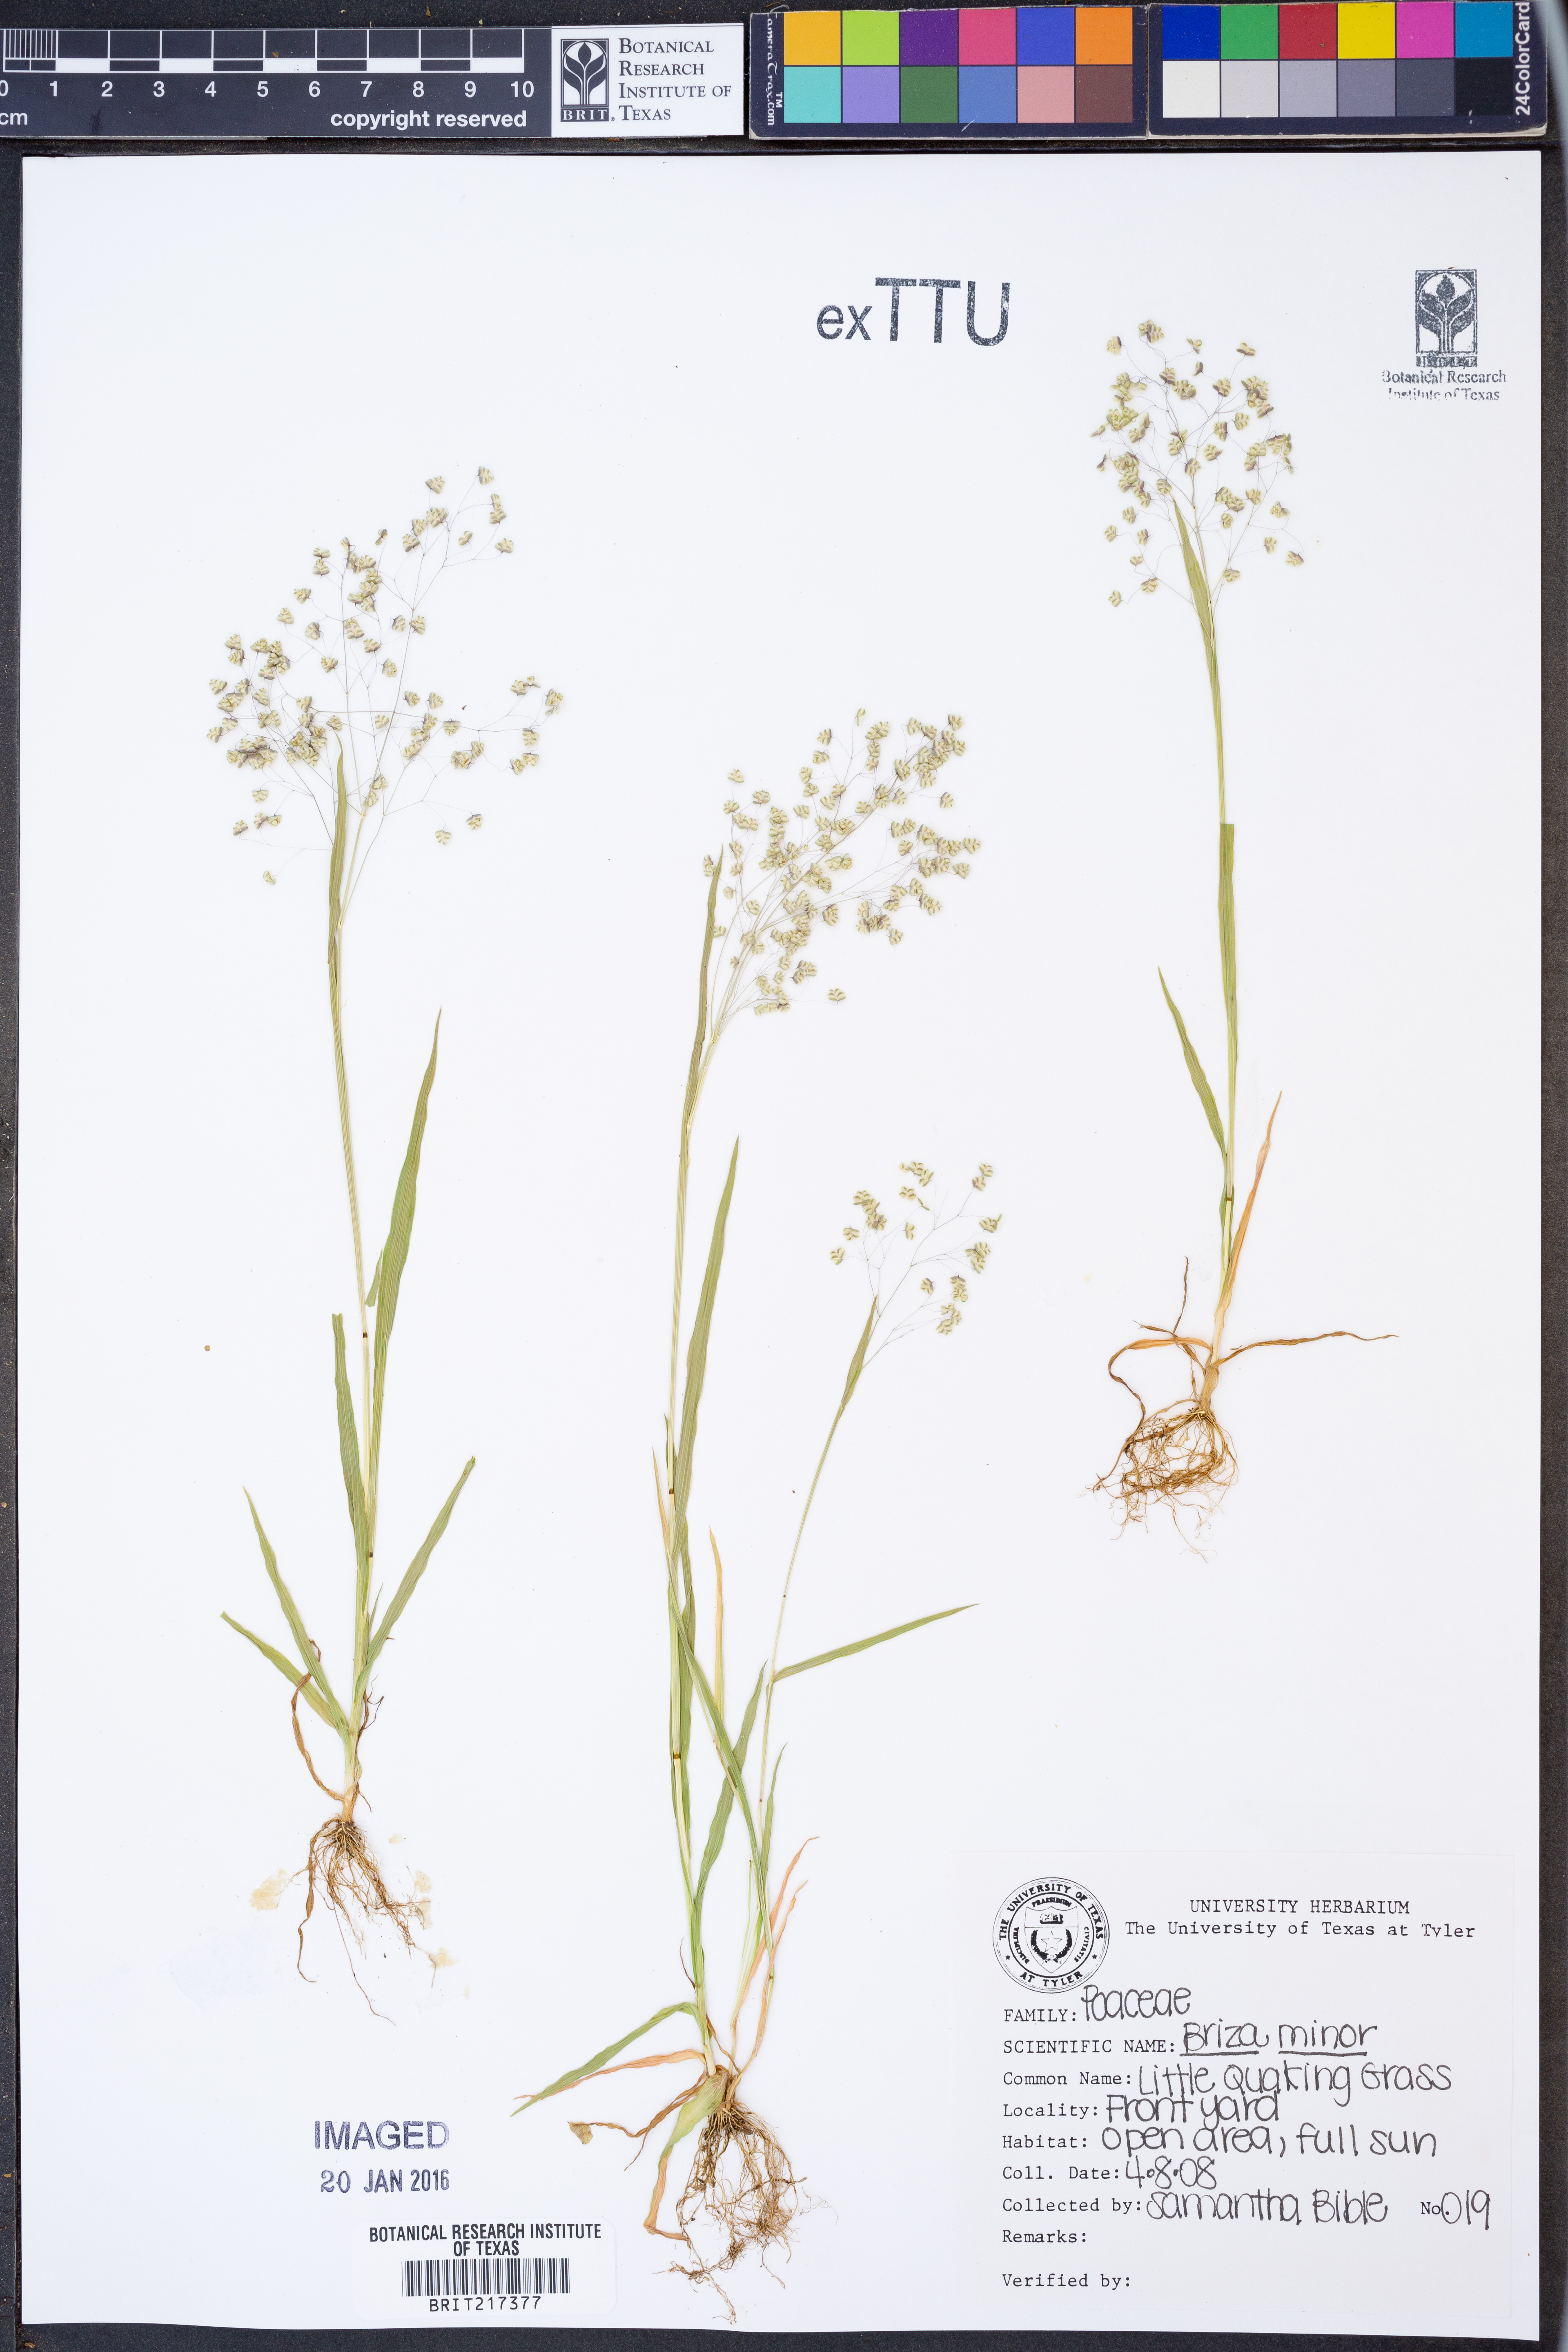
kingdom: Plantae
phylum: Tracheophyta
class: Liliopsida
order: Poales
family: Poaceae
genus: Briza
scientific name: Briza minor
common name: Lesser quaking-grass
